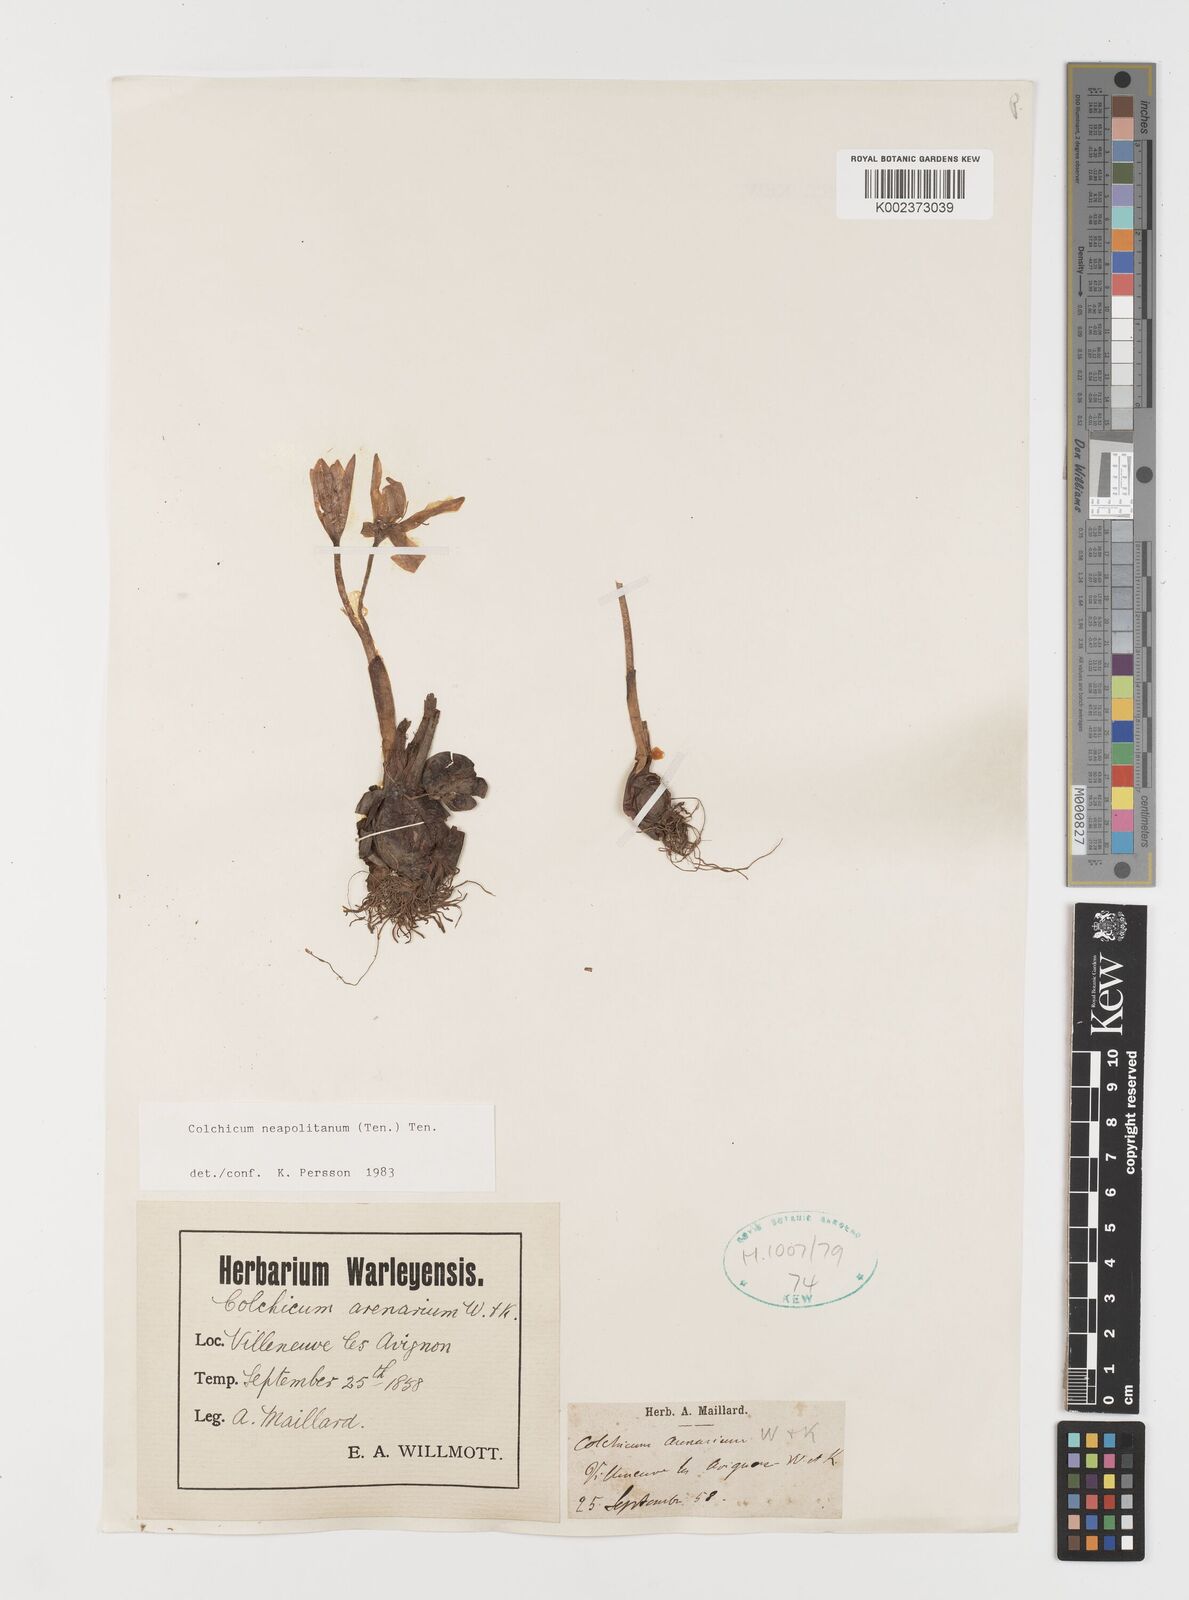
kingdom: Plantae
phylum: Tracheophyta
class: Liliopsida
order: Liliales
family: Colchicaceae
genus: Colchicum
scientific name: Colchicum neapolitanum
